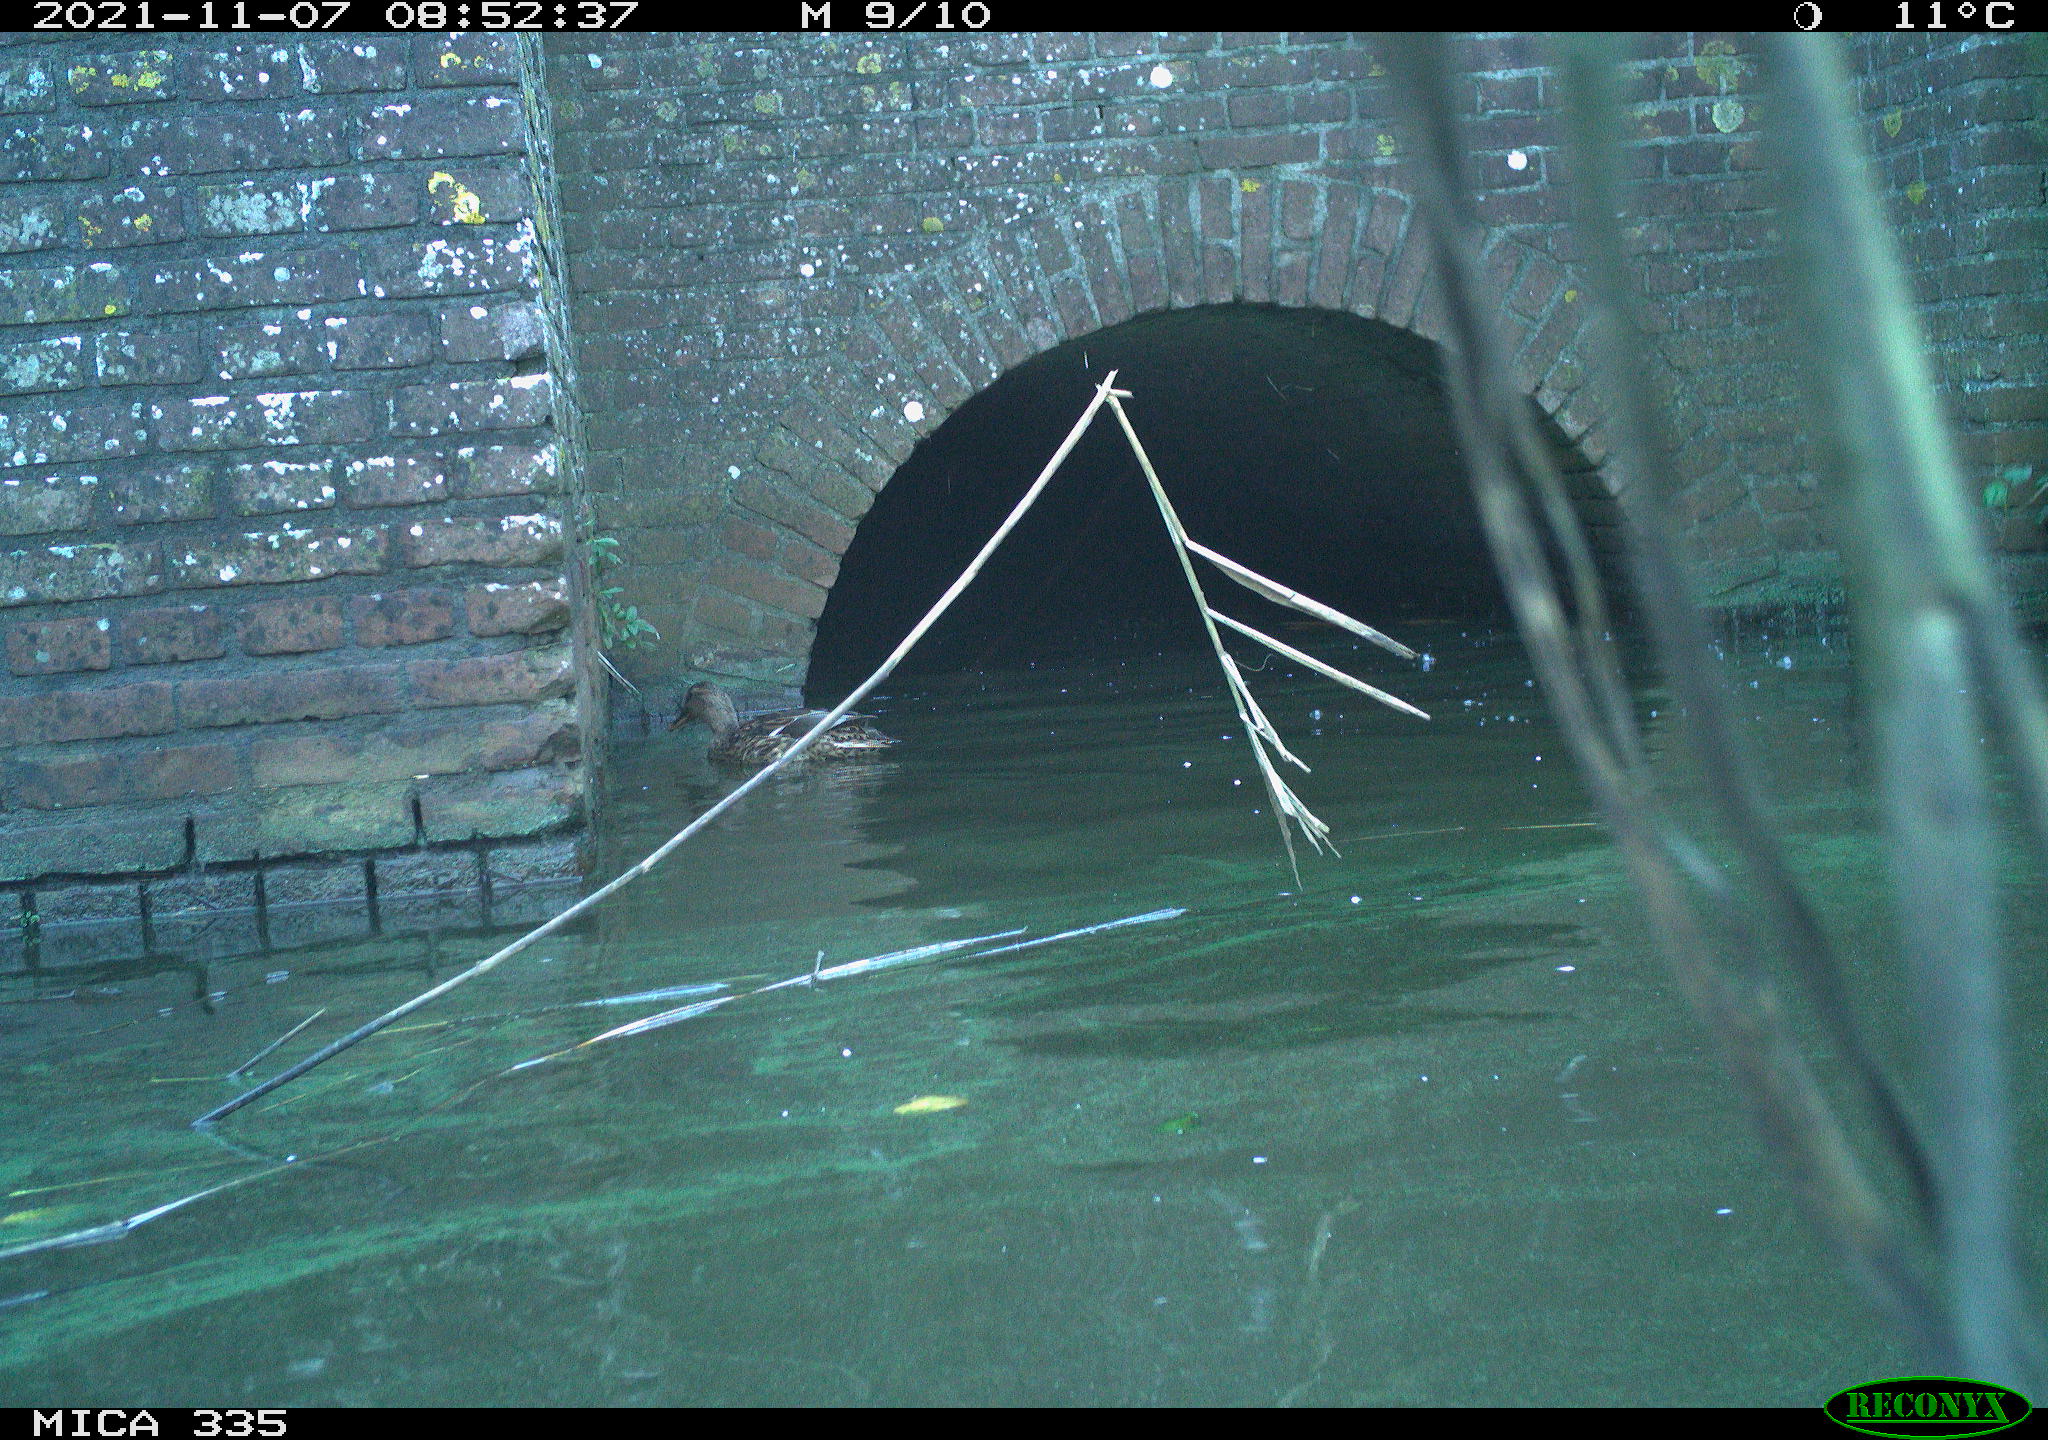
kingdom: Animalia
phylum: Chordata
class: Aves
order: Anseriformes
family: Anatidae
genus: Anas
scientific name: Anas platyrhynchos
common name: Mallard
